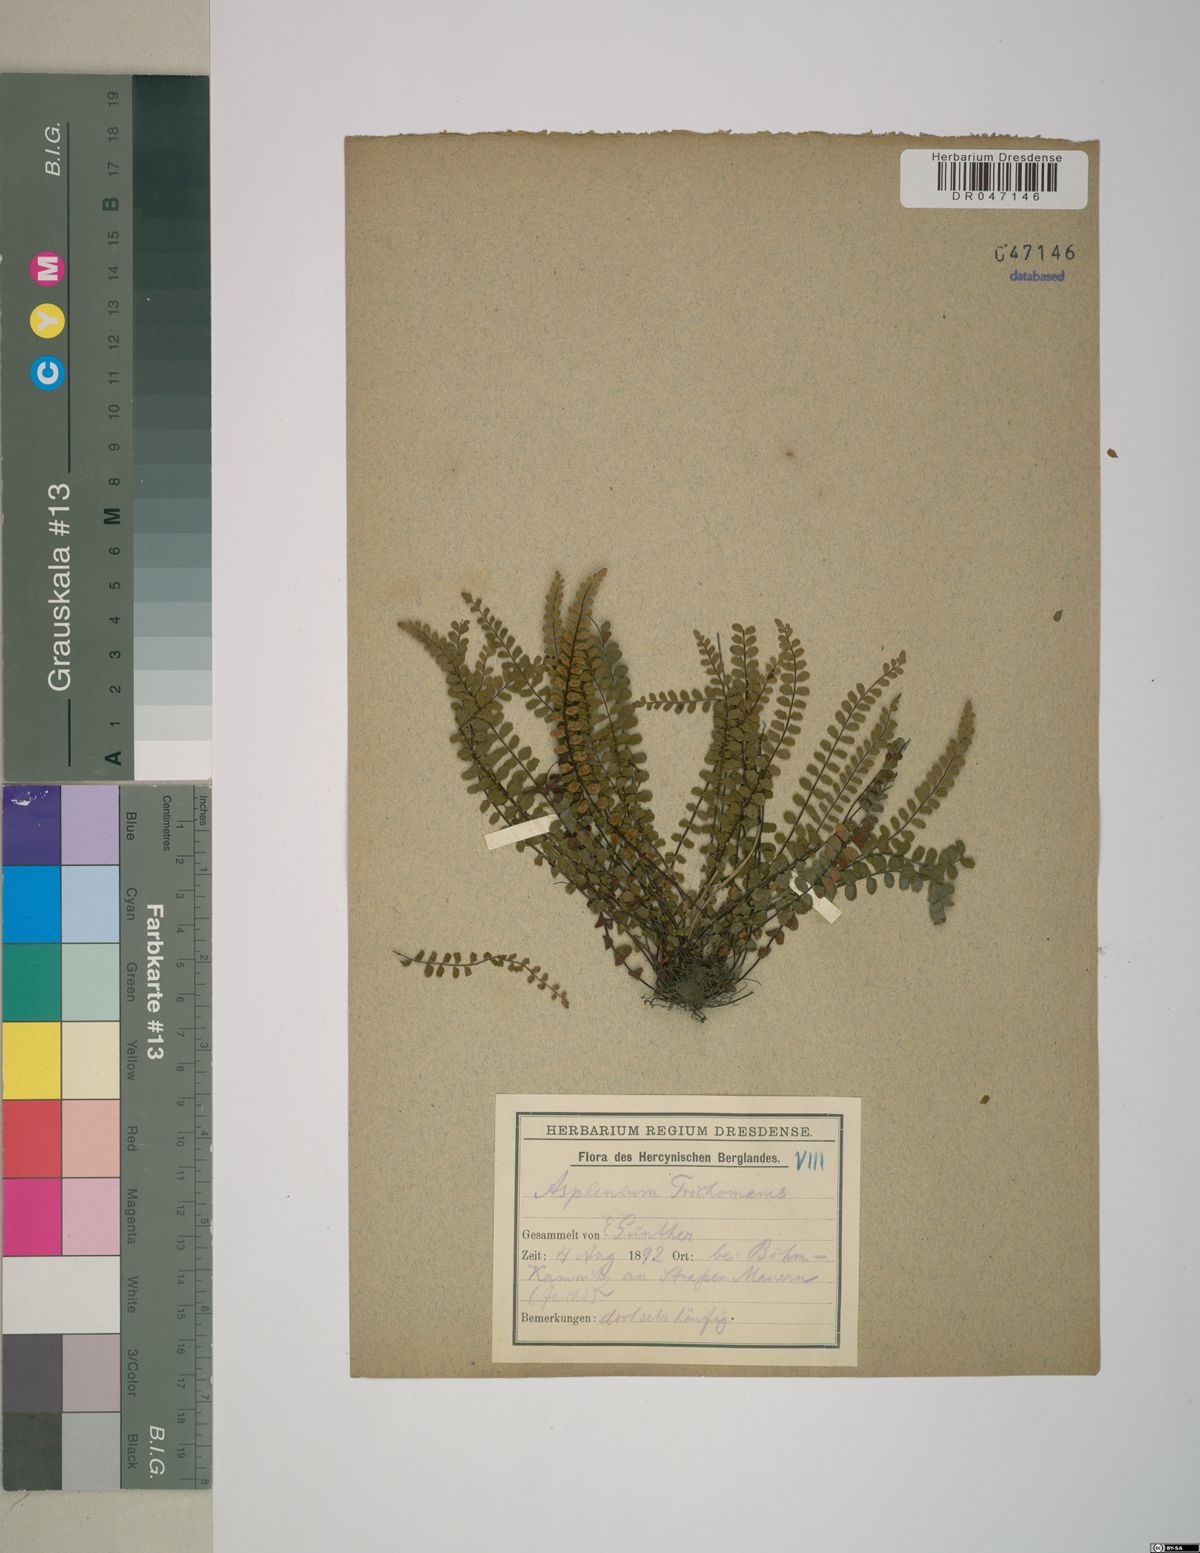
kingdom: Plantae
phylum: Tracheophyta
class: Polypodiopsida
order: Polypodiales
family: Aspleniaceae
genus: Asplenium
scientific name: Asplenium trichomanes
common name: Maidenhair spleenwort
